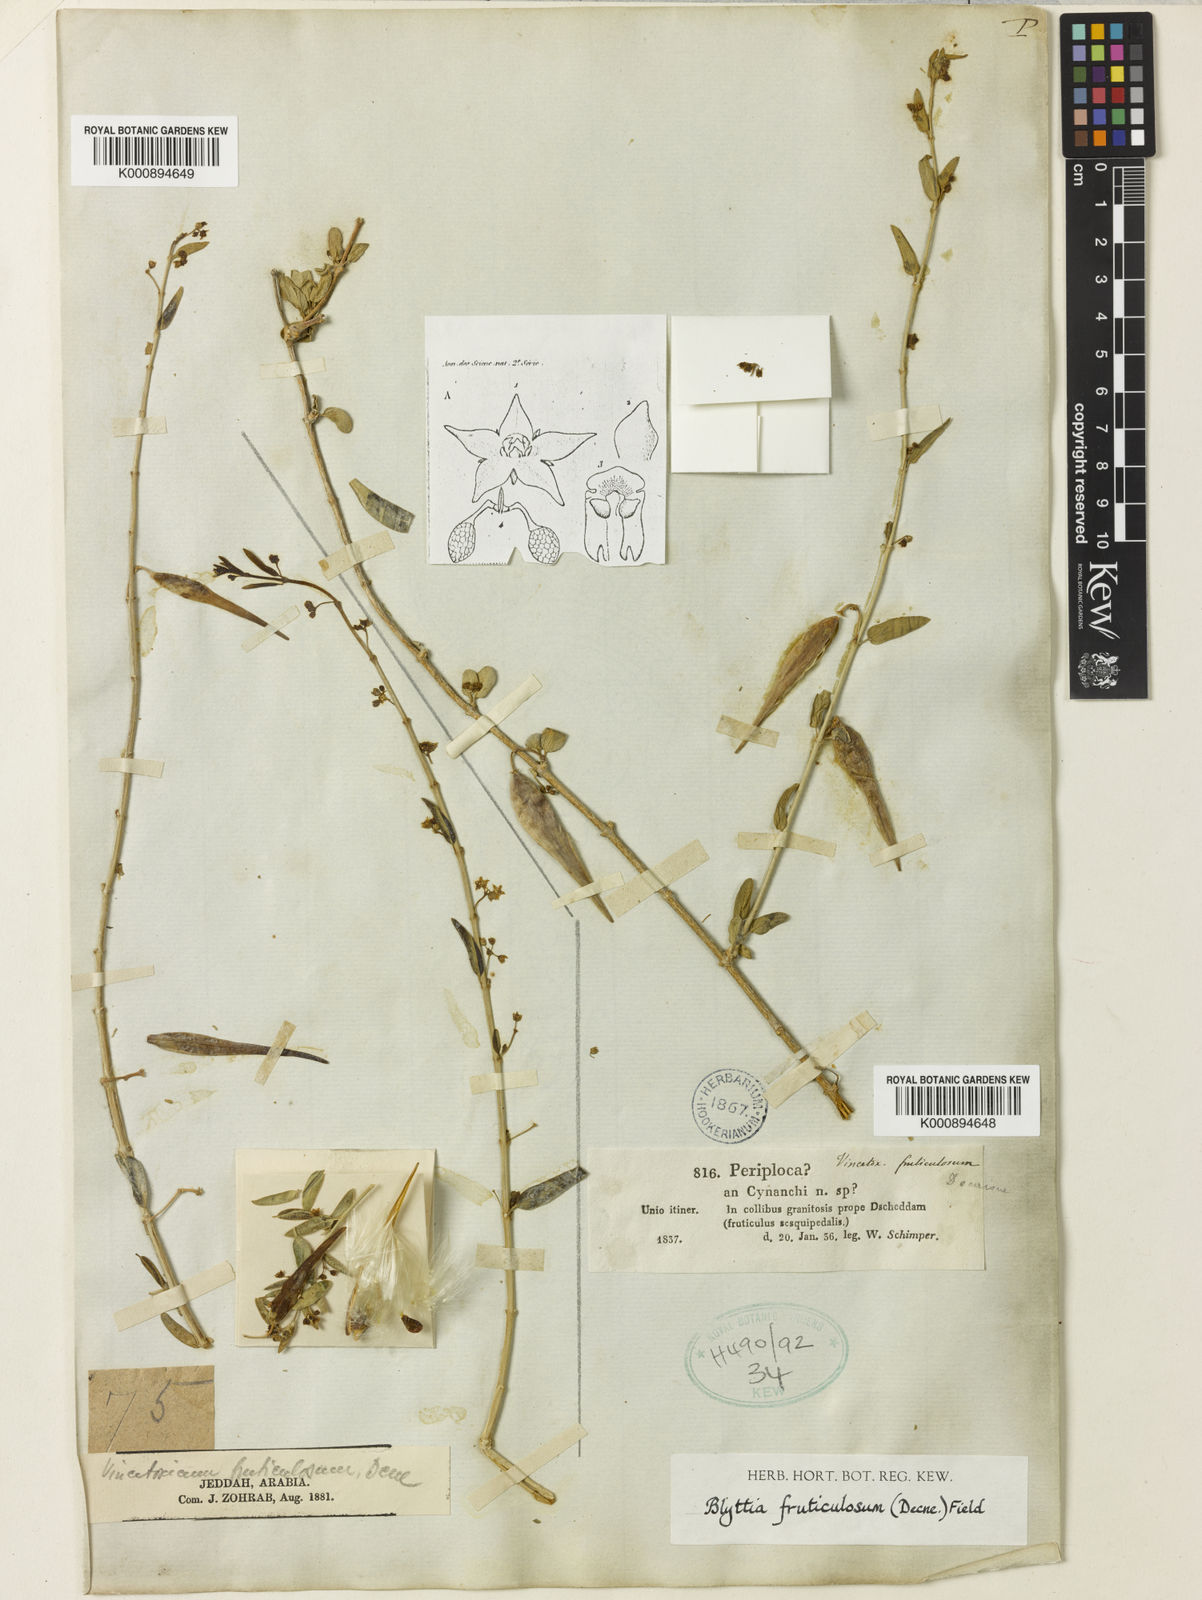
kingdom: Plantae
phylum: Tracheophyta
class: Magnoliopsida
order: Gentianales
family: Apocynaceae
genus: Vincetoxicum
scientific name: Vincetoxicum fruticulosum
